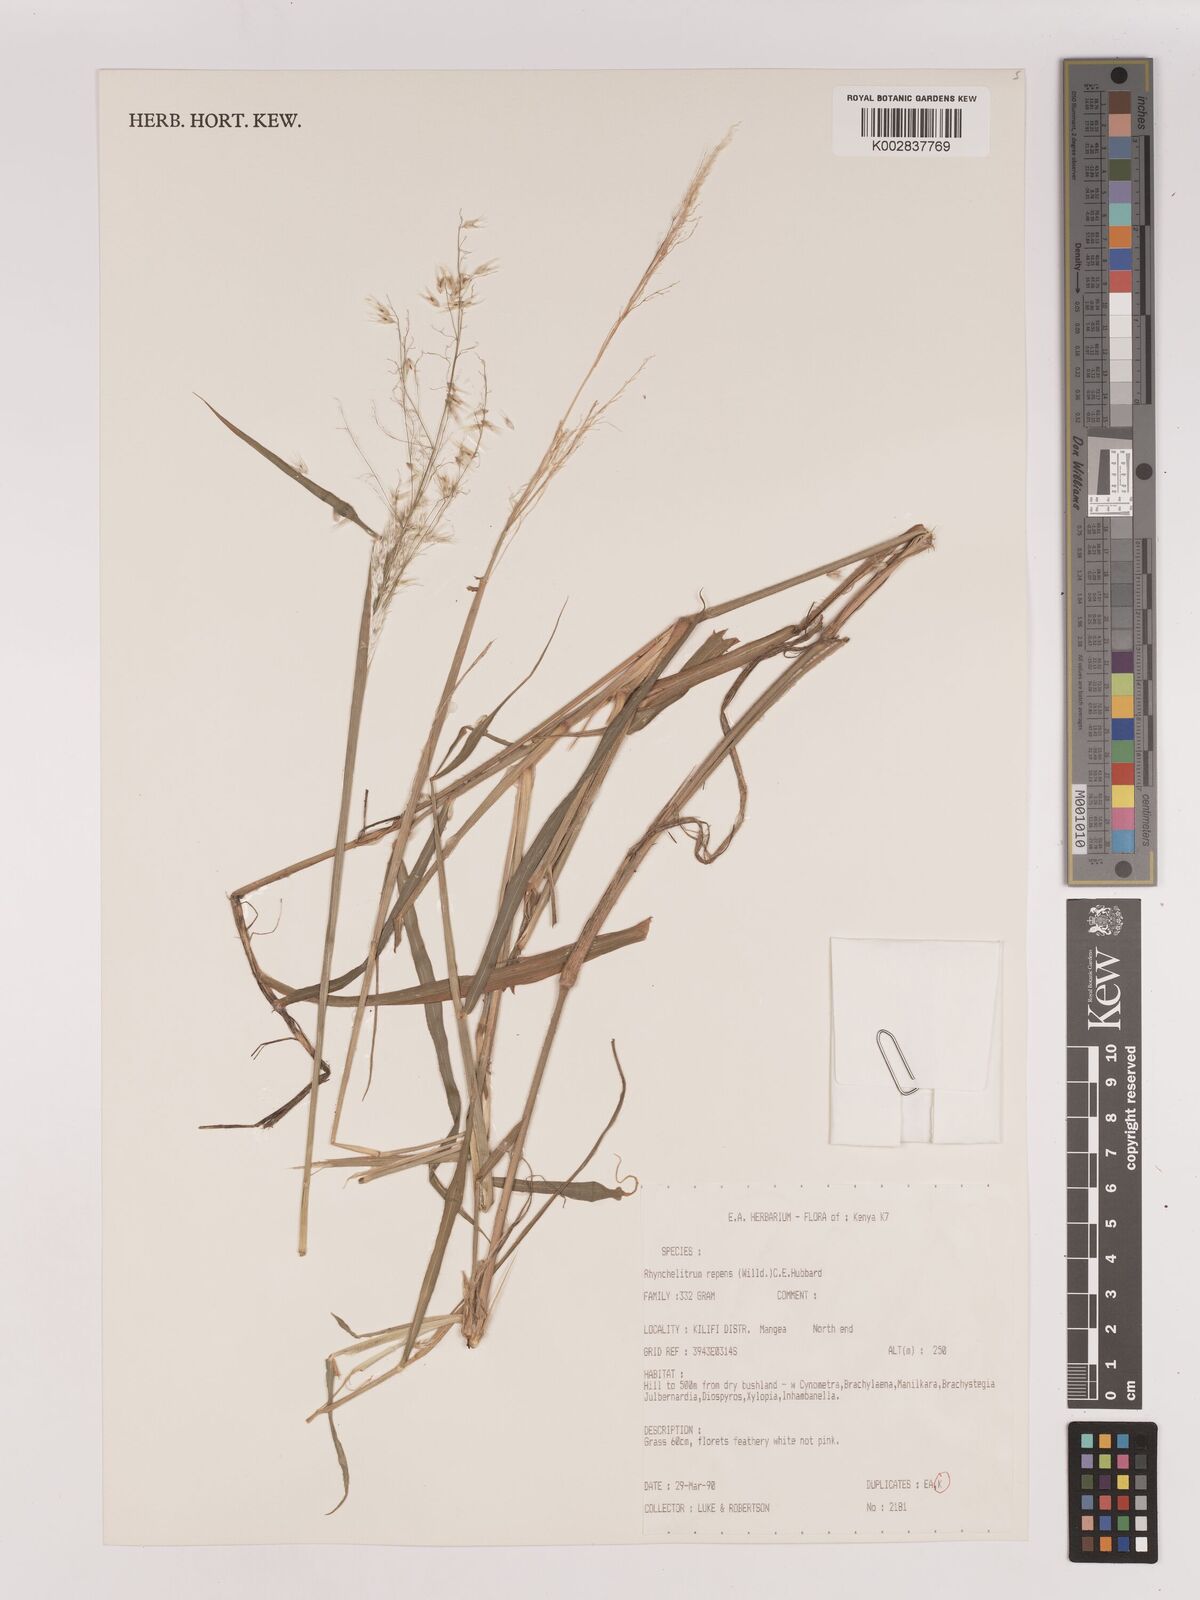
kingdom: Plantae
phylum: Tracheophyta
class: Liliopsida
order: Poales
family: Poaceae
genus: Melinis
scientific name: Melinis repens
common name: Rose natal grass
